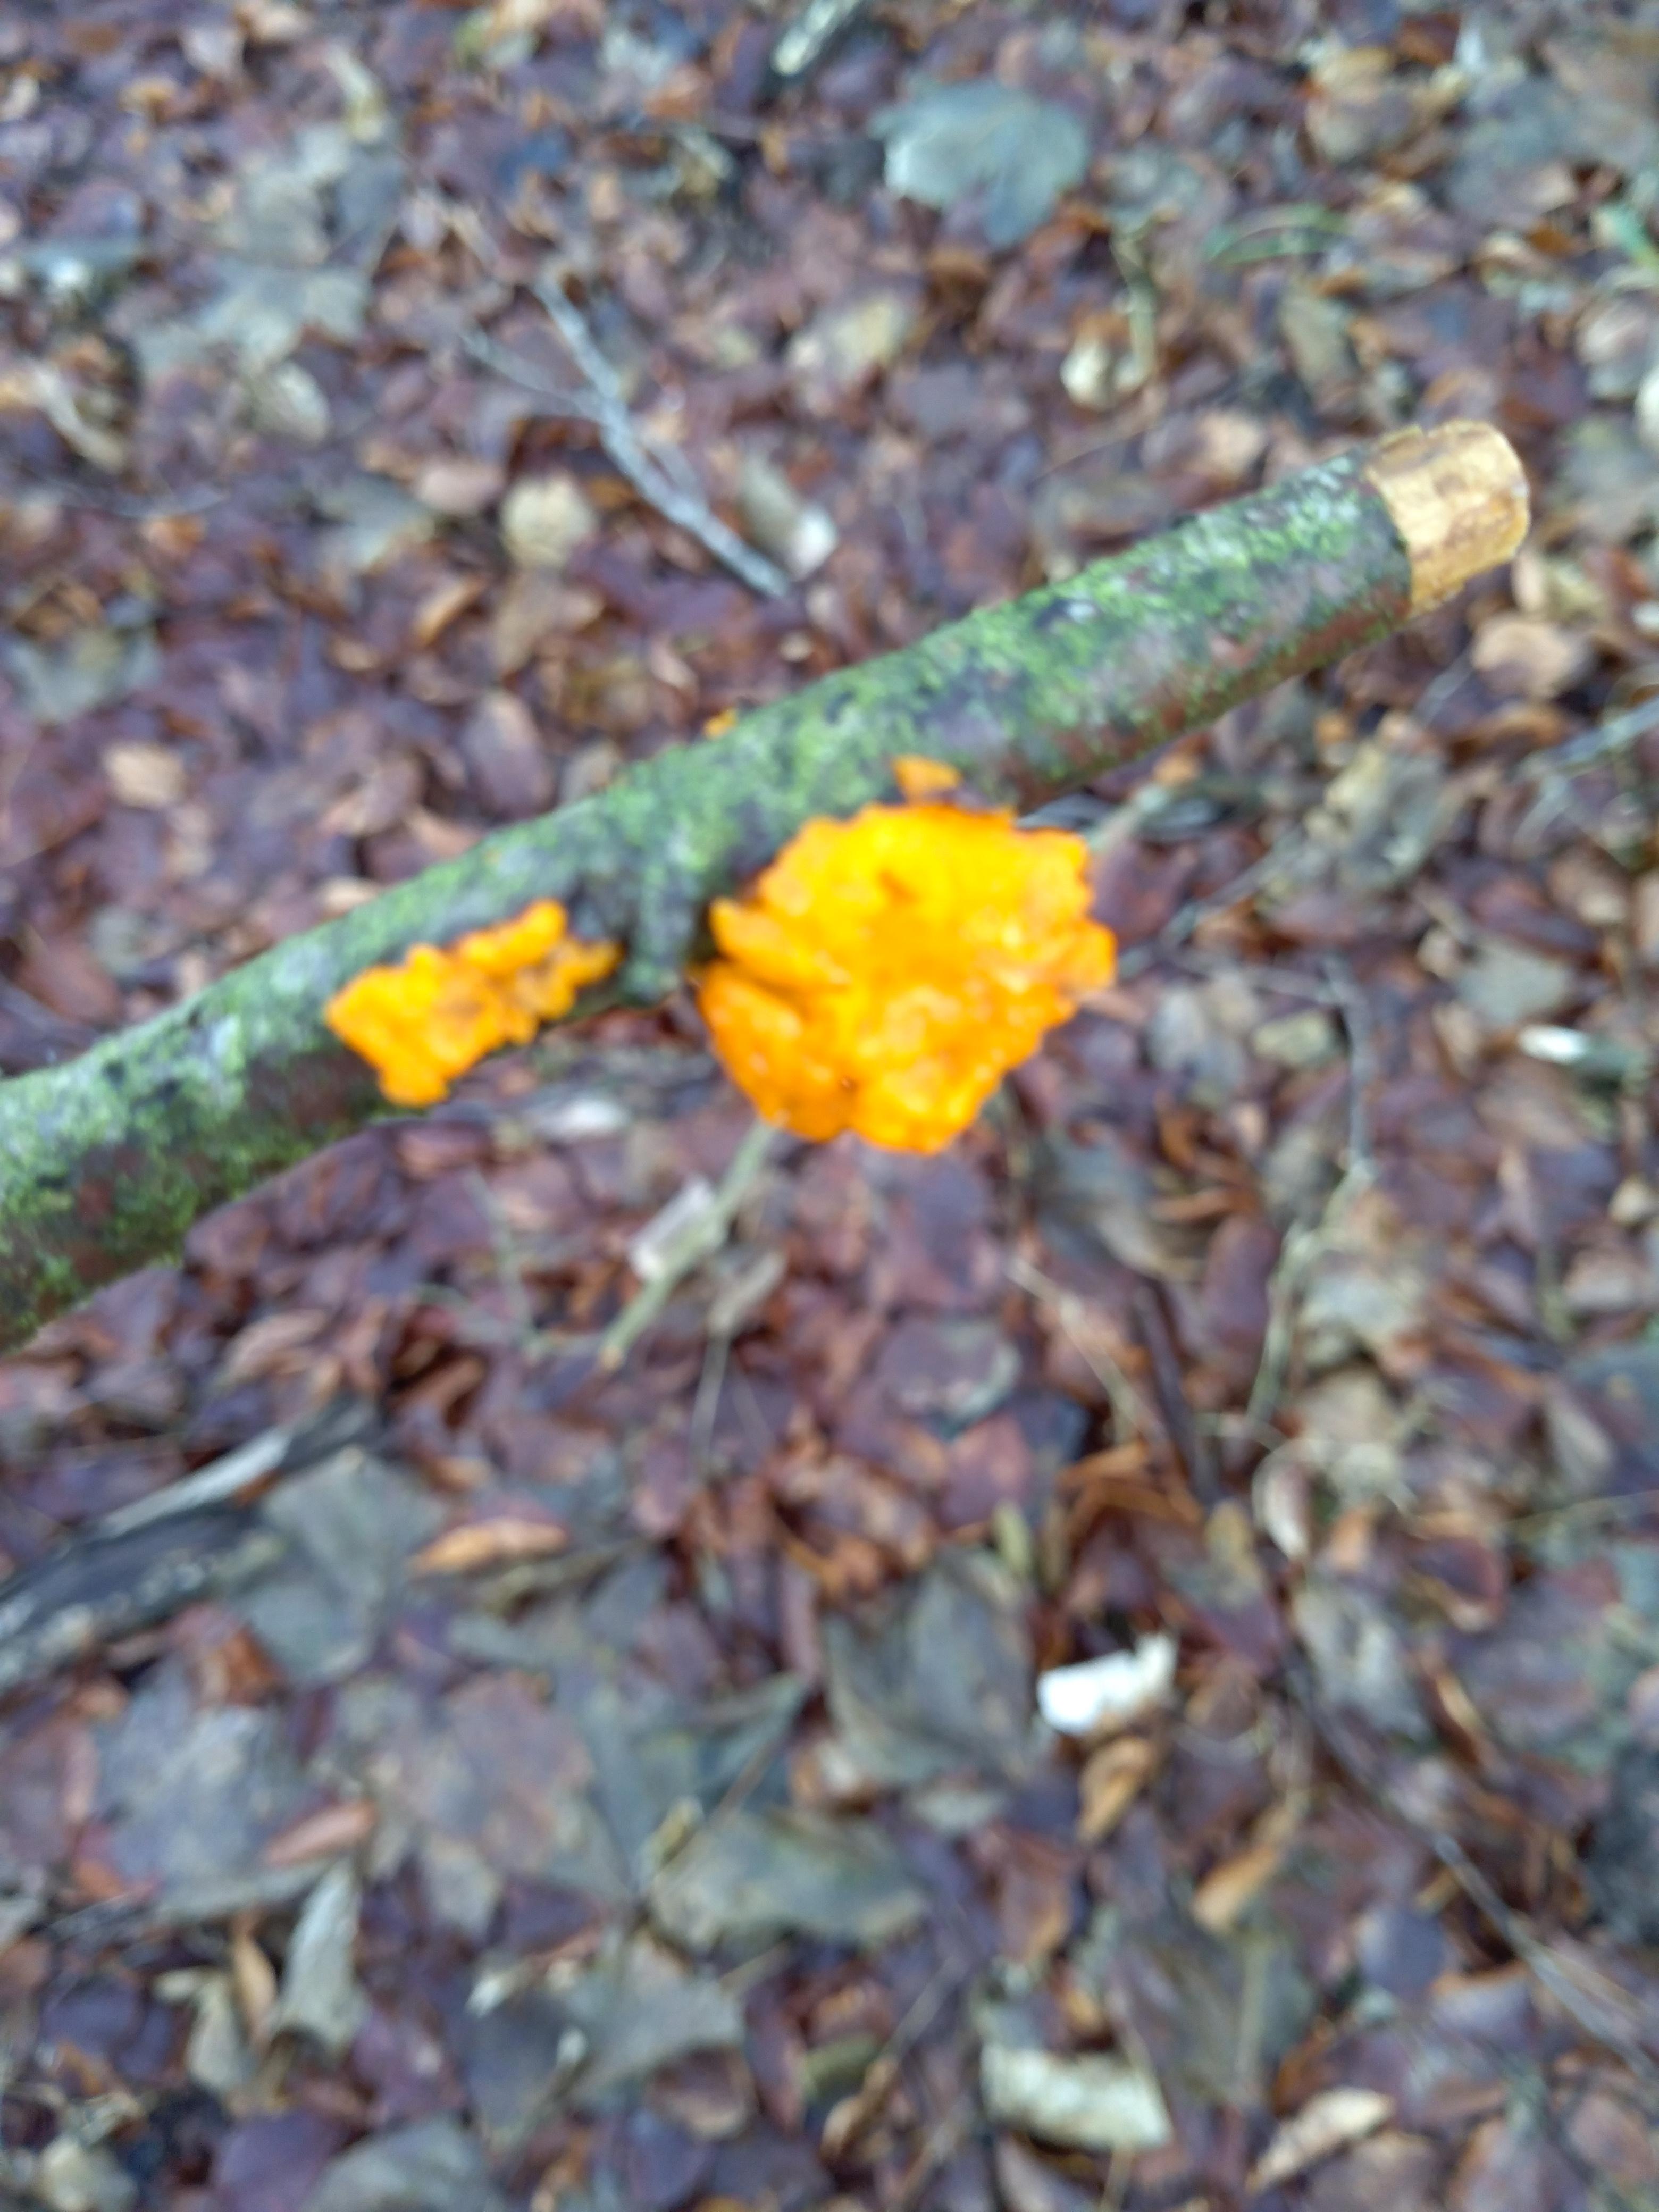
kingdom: Fungi
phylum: Basidiomycota
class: Tremellomycetes
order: Tremellales
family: Tremellaceae
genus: Tremella
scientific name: Tremella mesenterica
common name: gul bævresvamp
